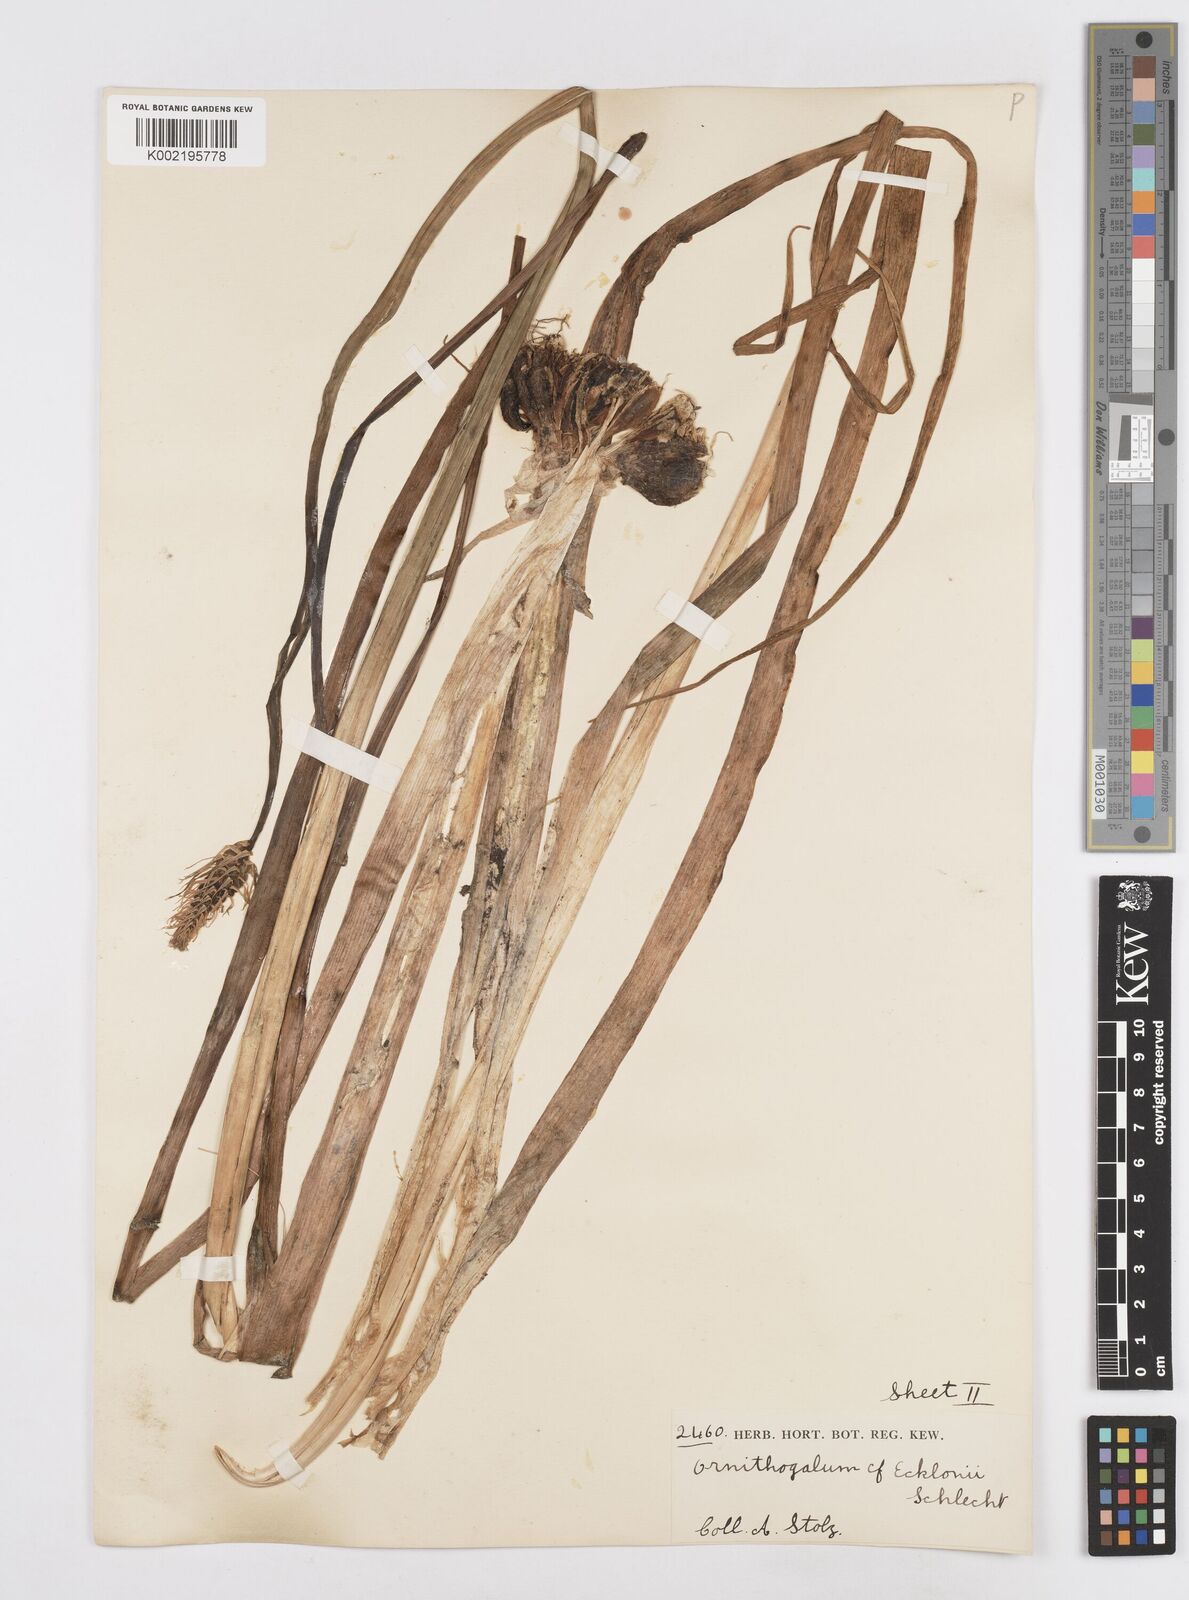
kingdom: Plantae
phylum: Tracheophyta
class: Liliopsida
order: Asparagales
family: Asparagaceae
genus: Albuca
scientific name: Albuca virens
